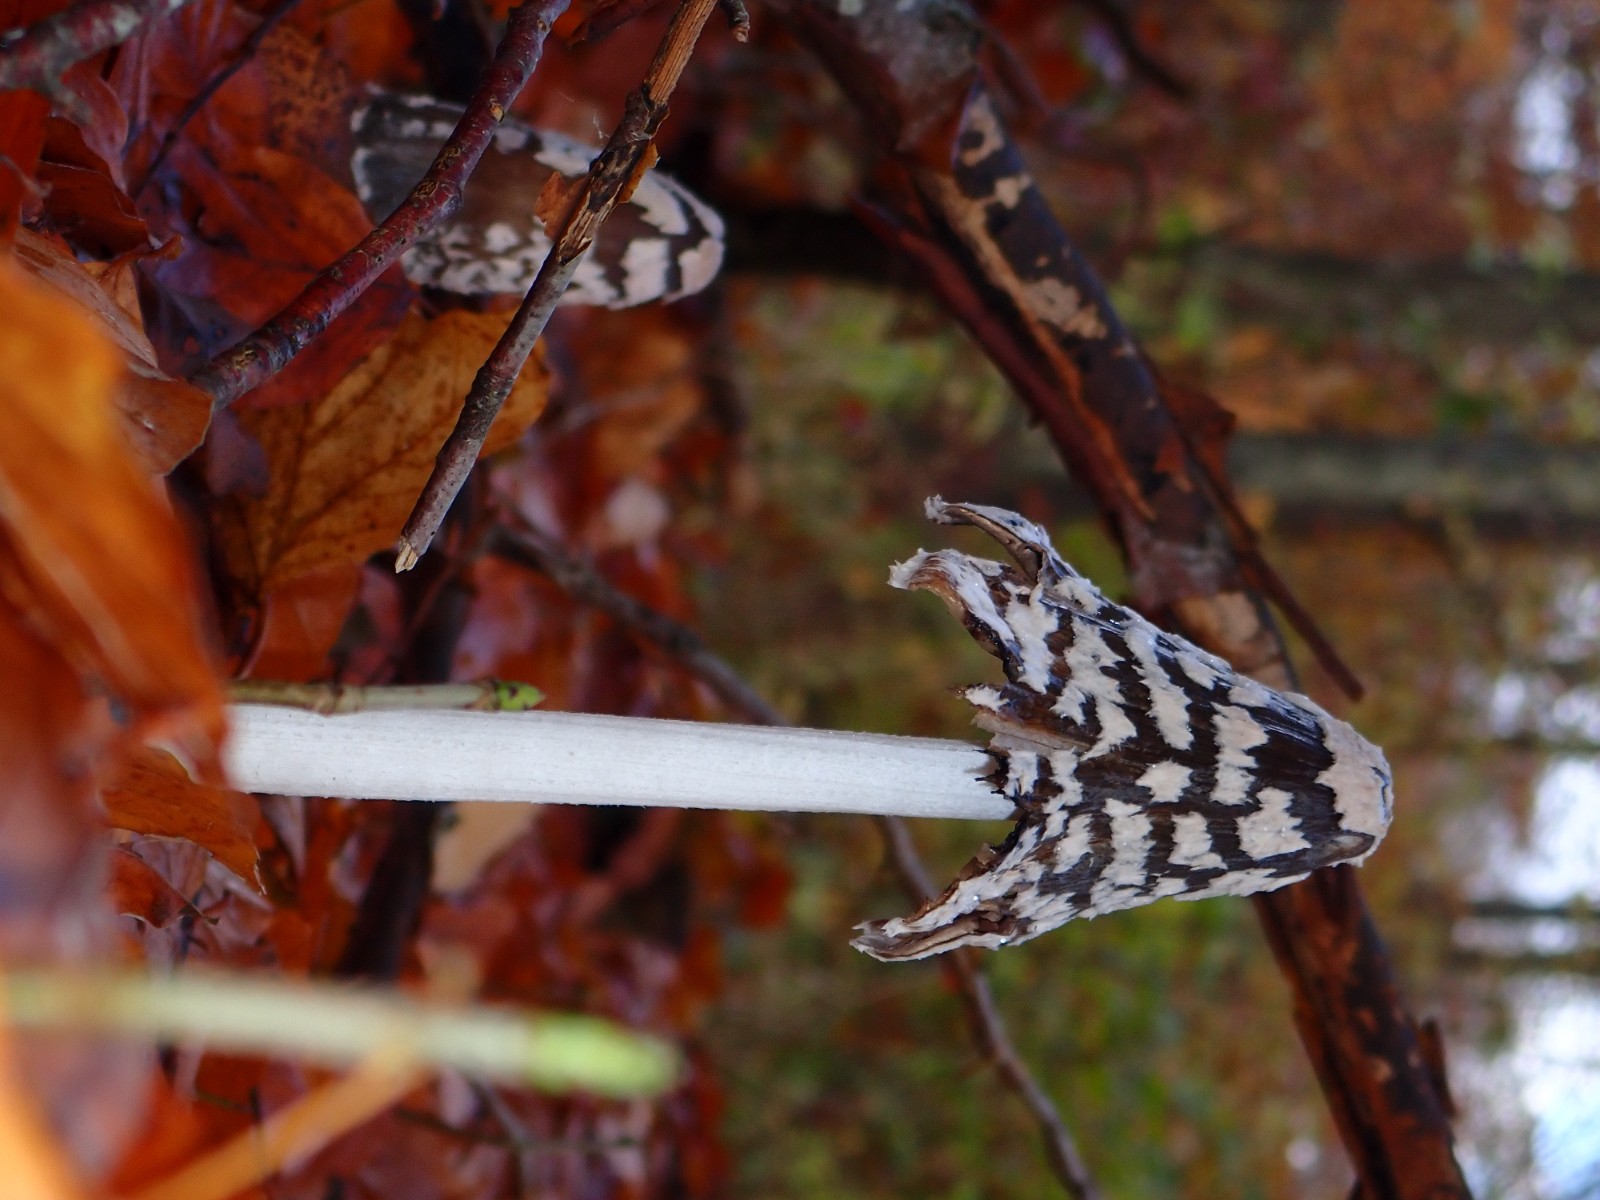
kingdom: Fungi
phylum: Basidiomycota
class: Agaricomycetes
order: Agaricales
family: Psathyrellaceae
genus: Coprinopsis
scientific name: Coprinopsis picacea
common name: skade-blækhat
